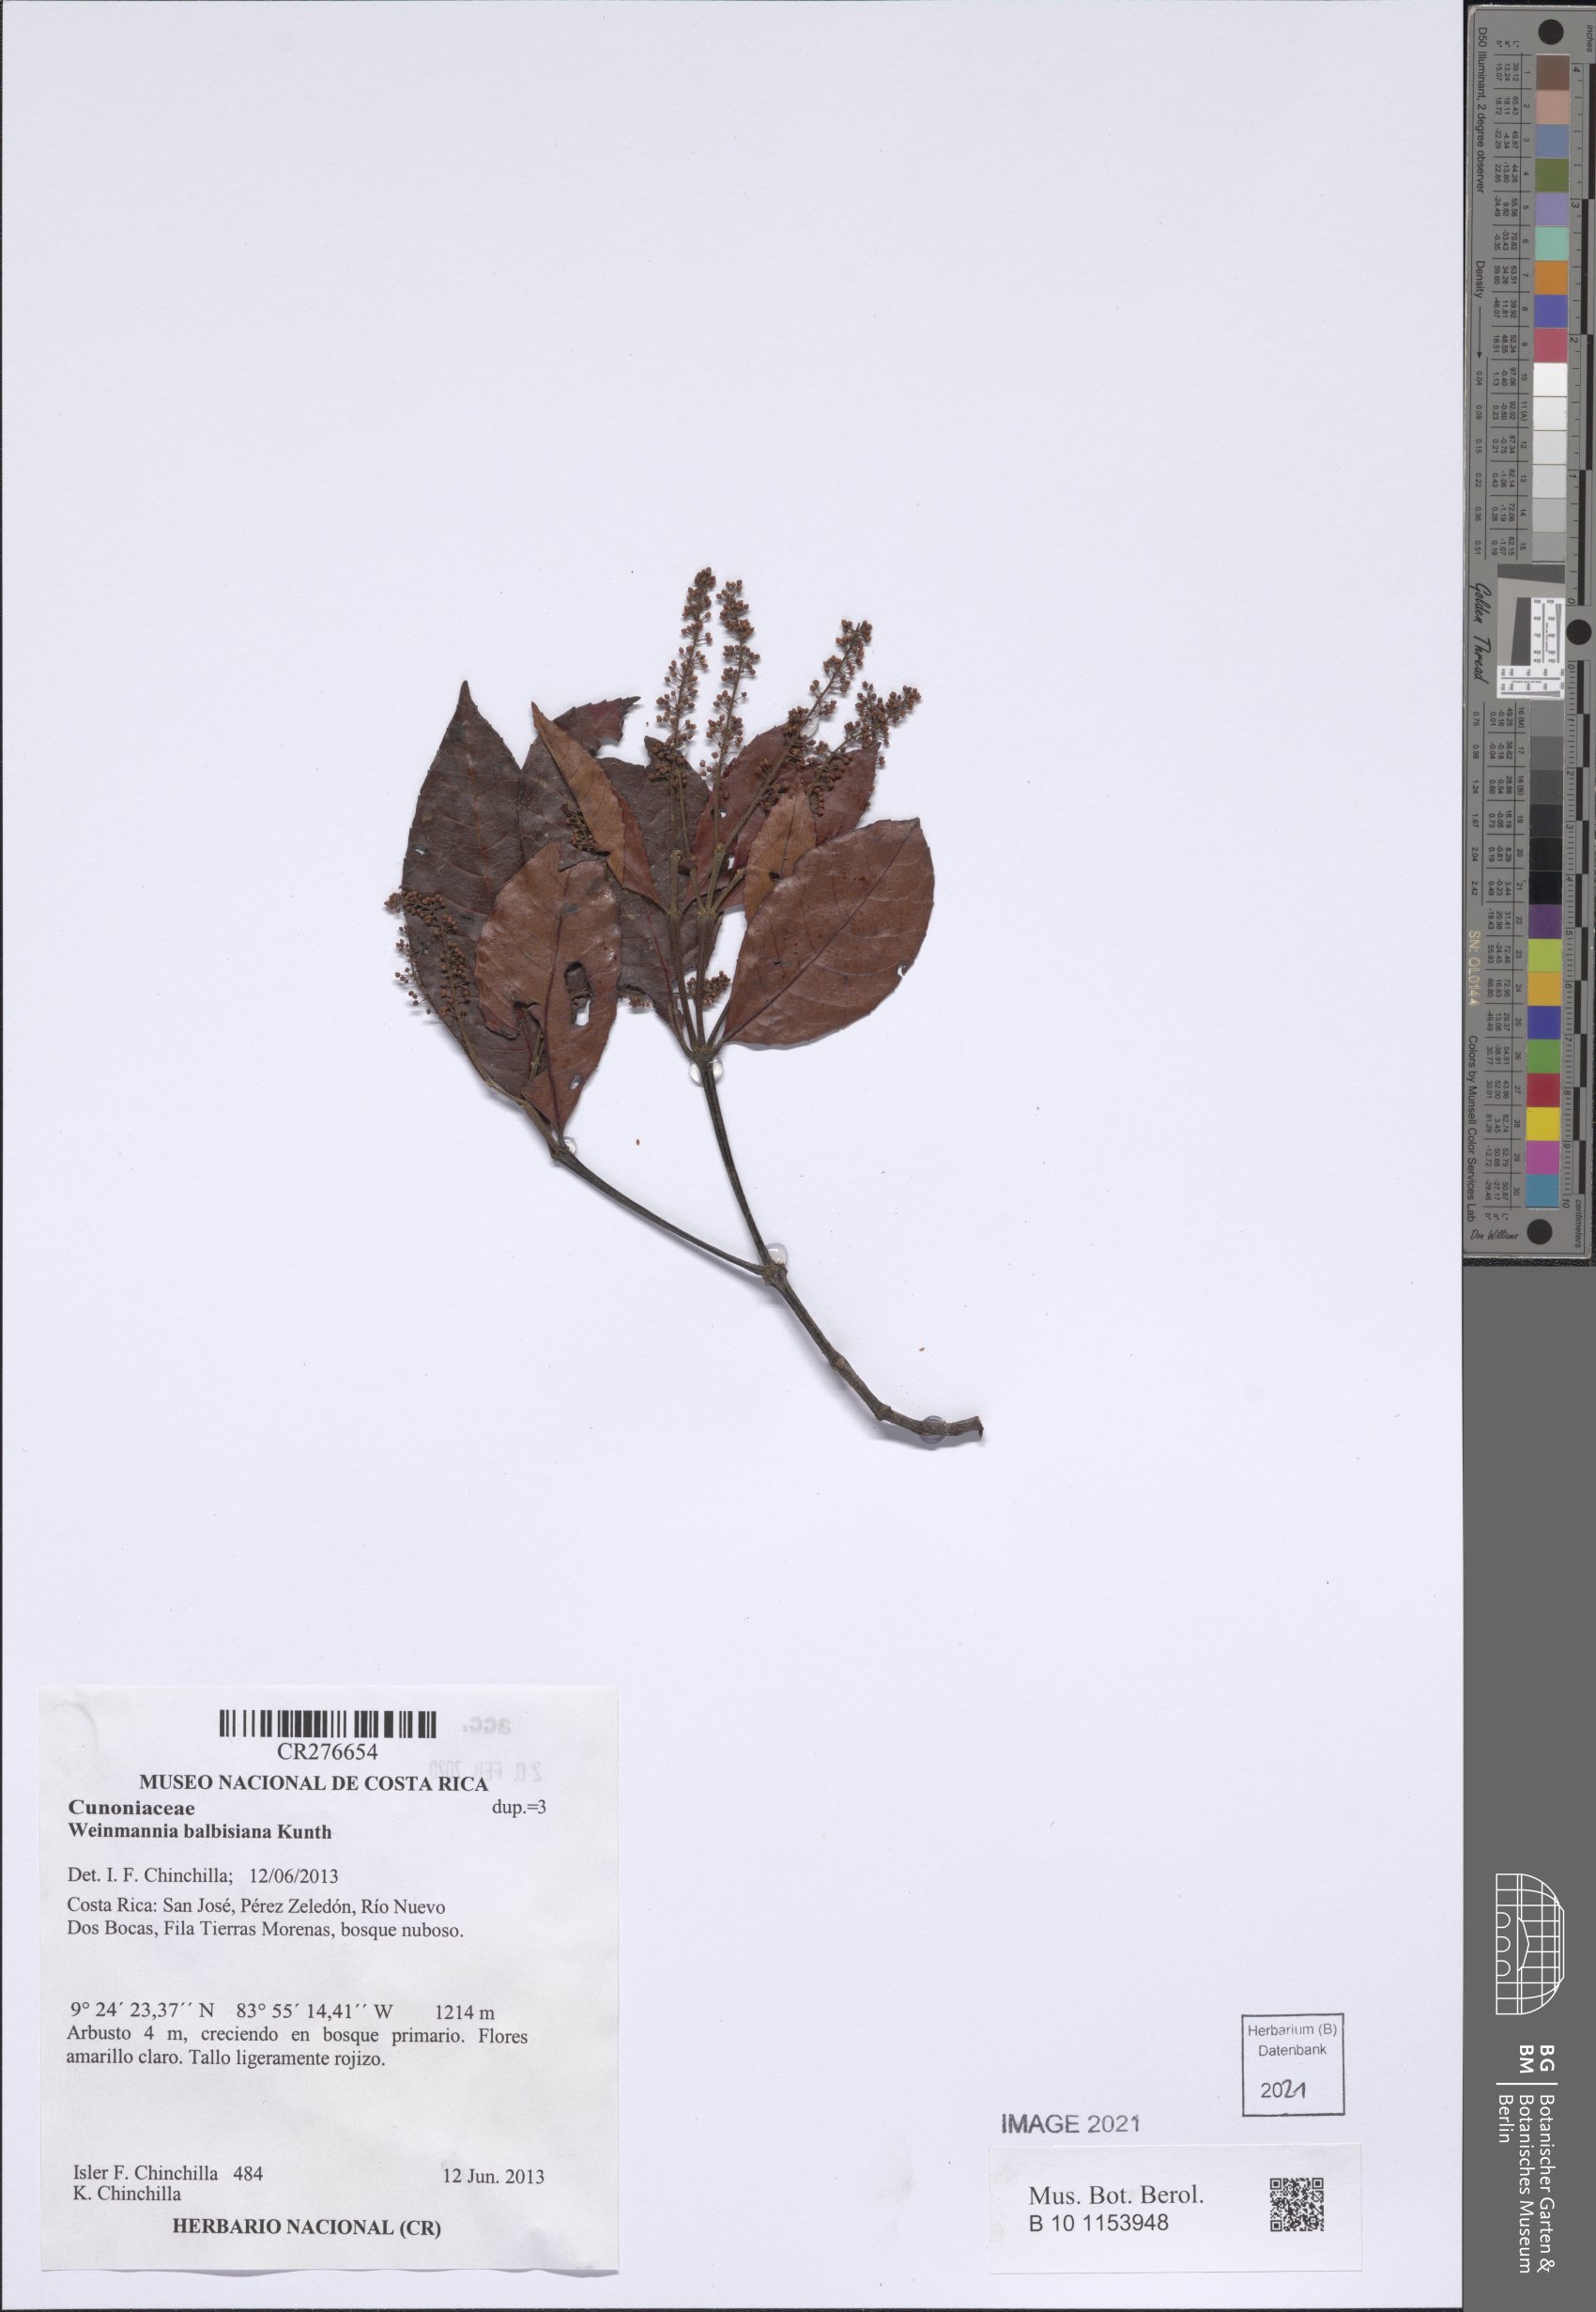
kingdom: Plantae
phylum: Tracheophyta
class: Magnoliopsida
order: Oxalidales
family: Cunoniaceae
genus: Weinmannia
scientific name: Weinmannia balbisana
